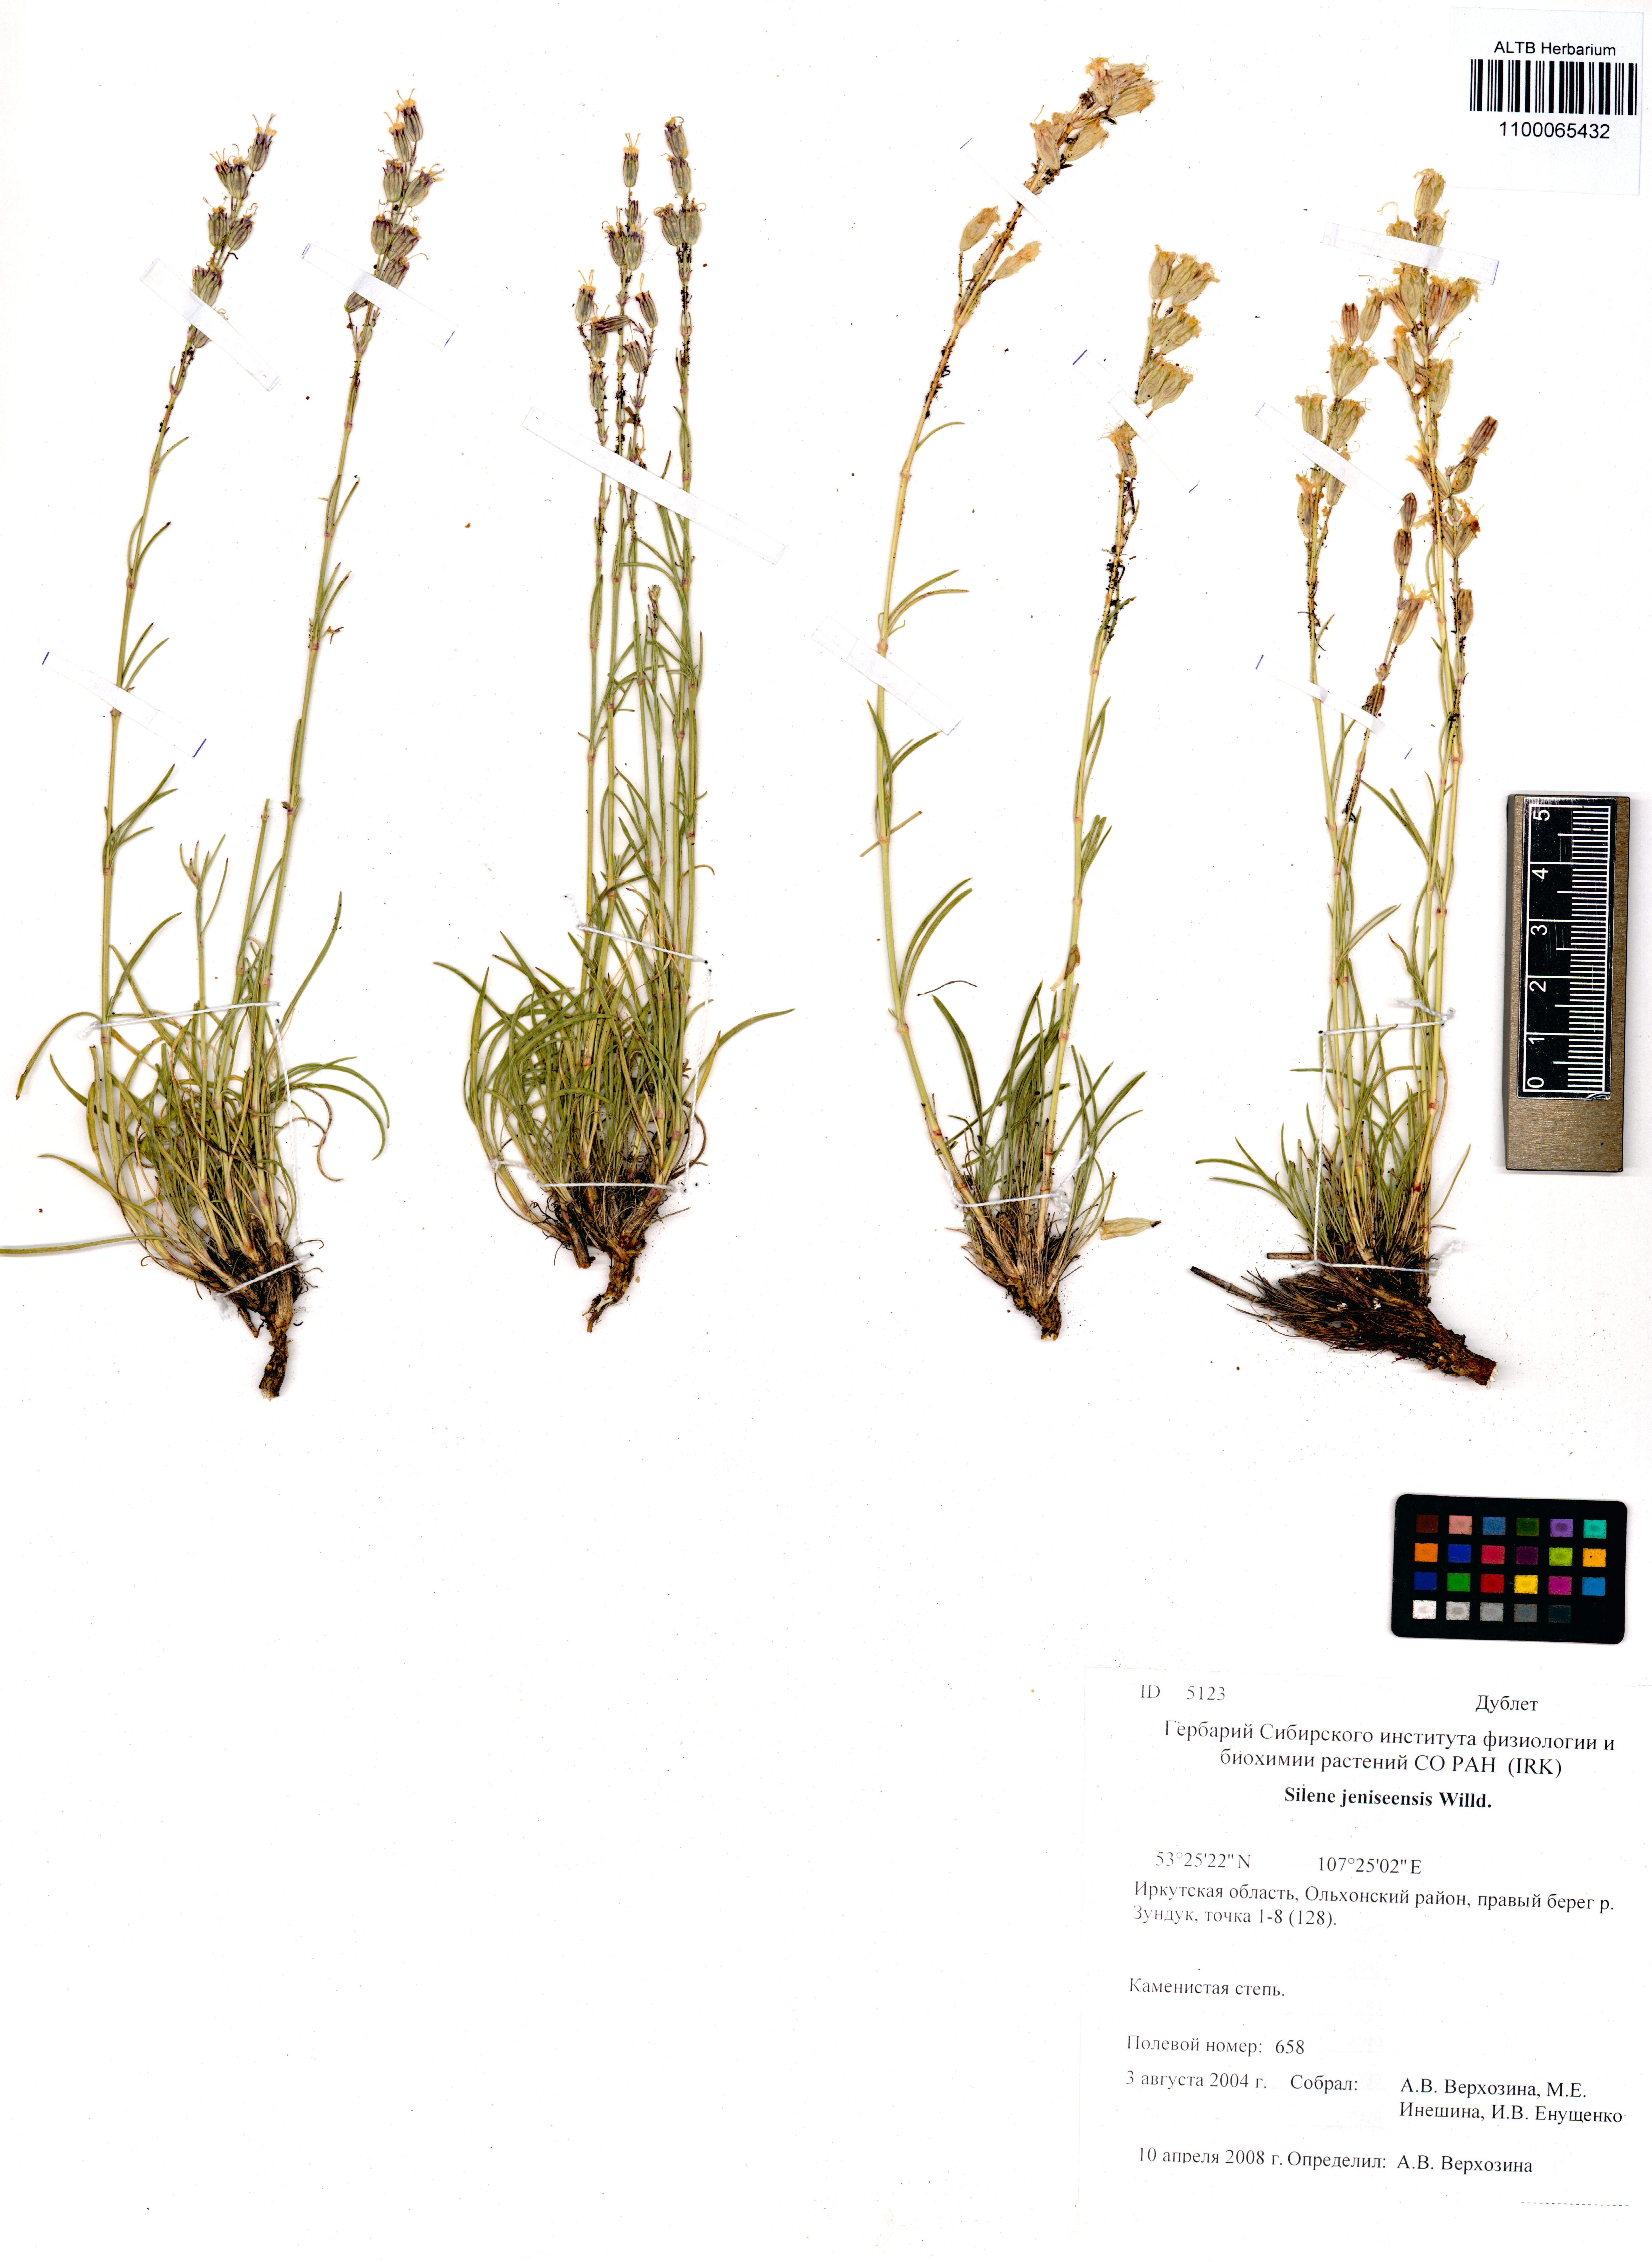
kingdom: Plantae
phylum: Tracheophyta
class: Magnoliopsida
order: Caryophyllales
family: Caryophyllaceae
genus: Silene
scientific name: Silene jeniseensis
